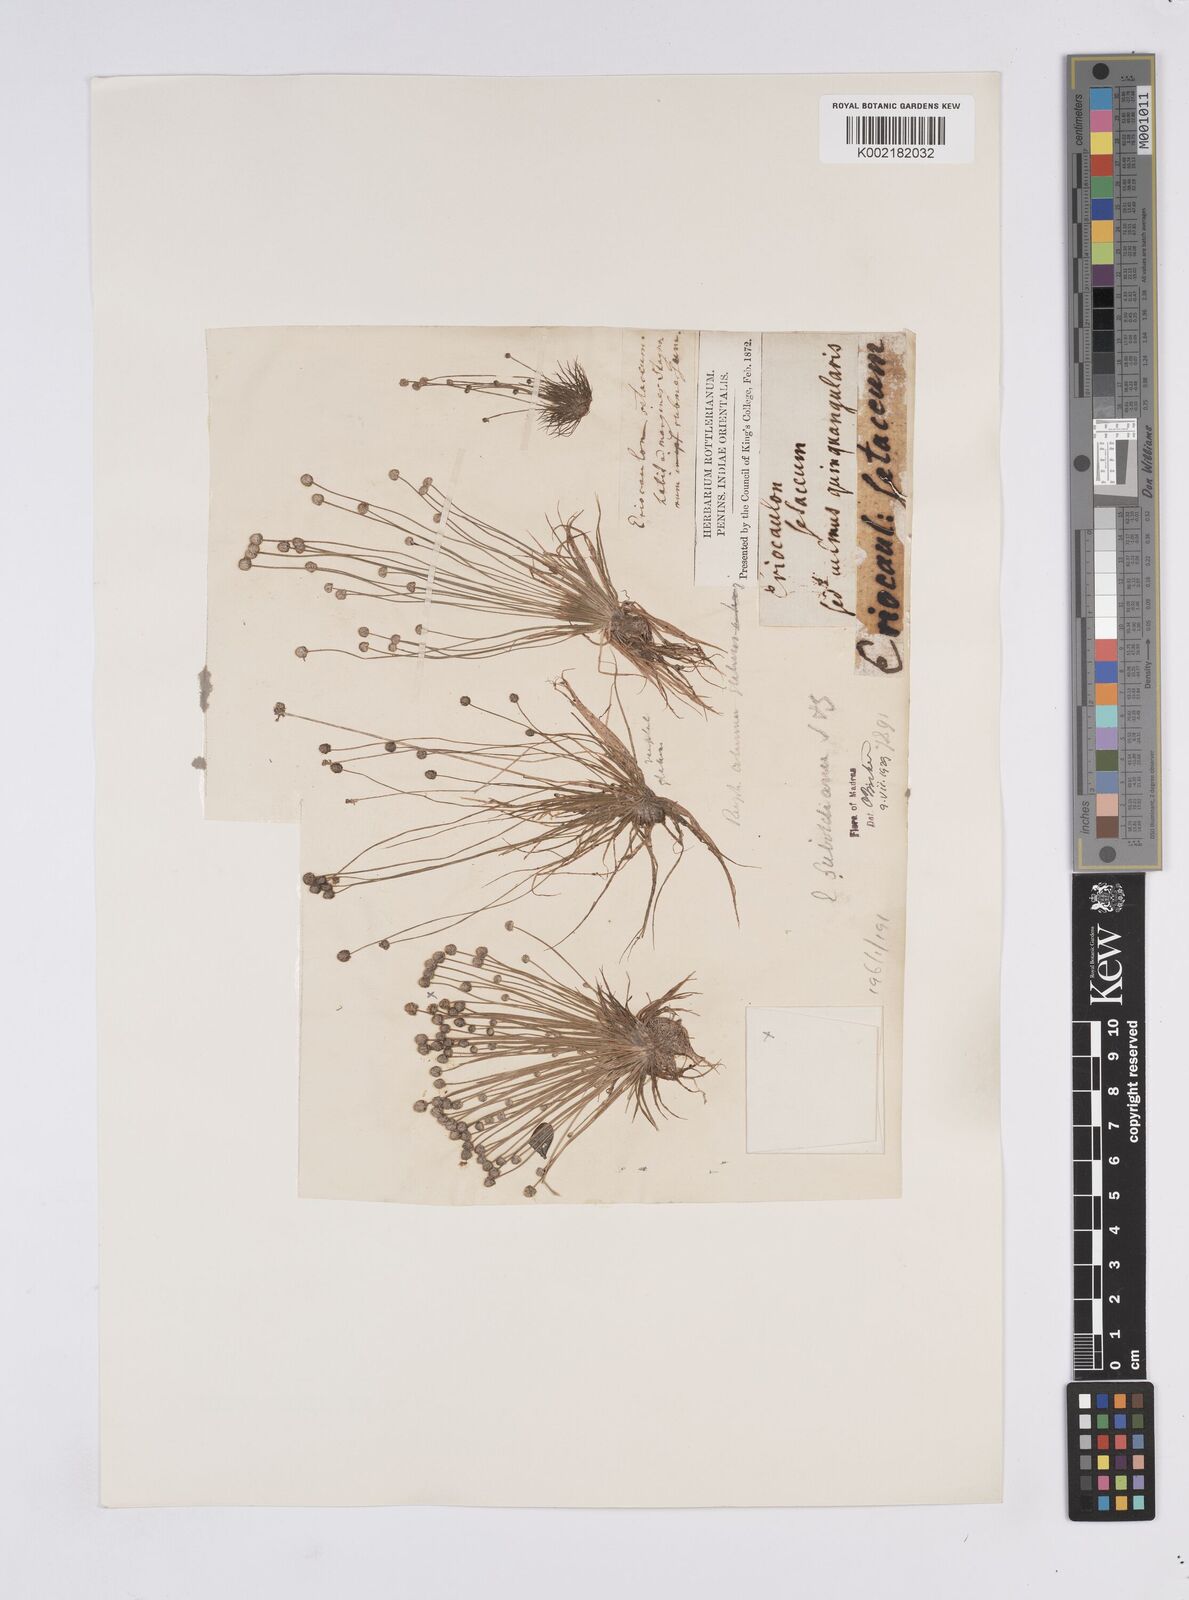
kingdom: Plantae
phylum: Tracheophyta
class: Liliopsida
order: Poales
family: Eriocaulaceae
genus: Eriocaulon
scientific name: Eriocaulon cinereum
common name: Ashy pipewort
